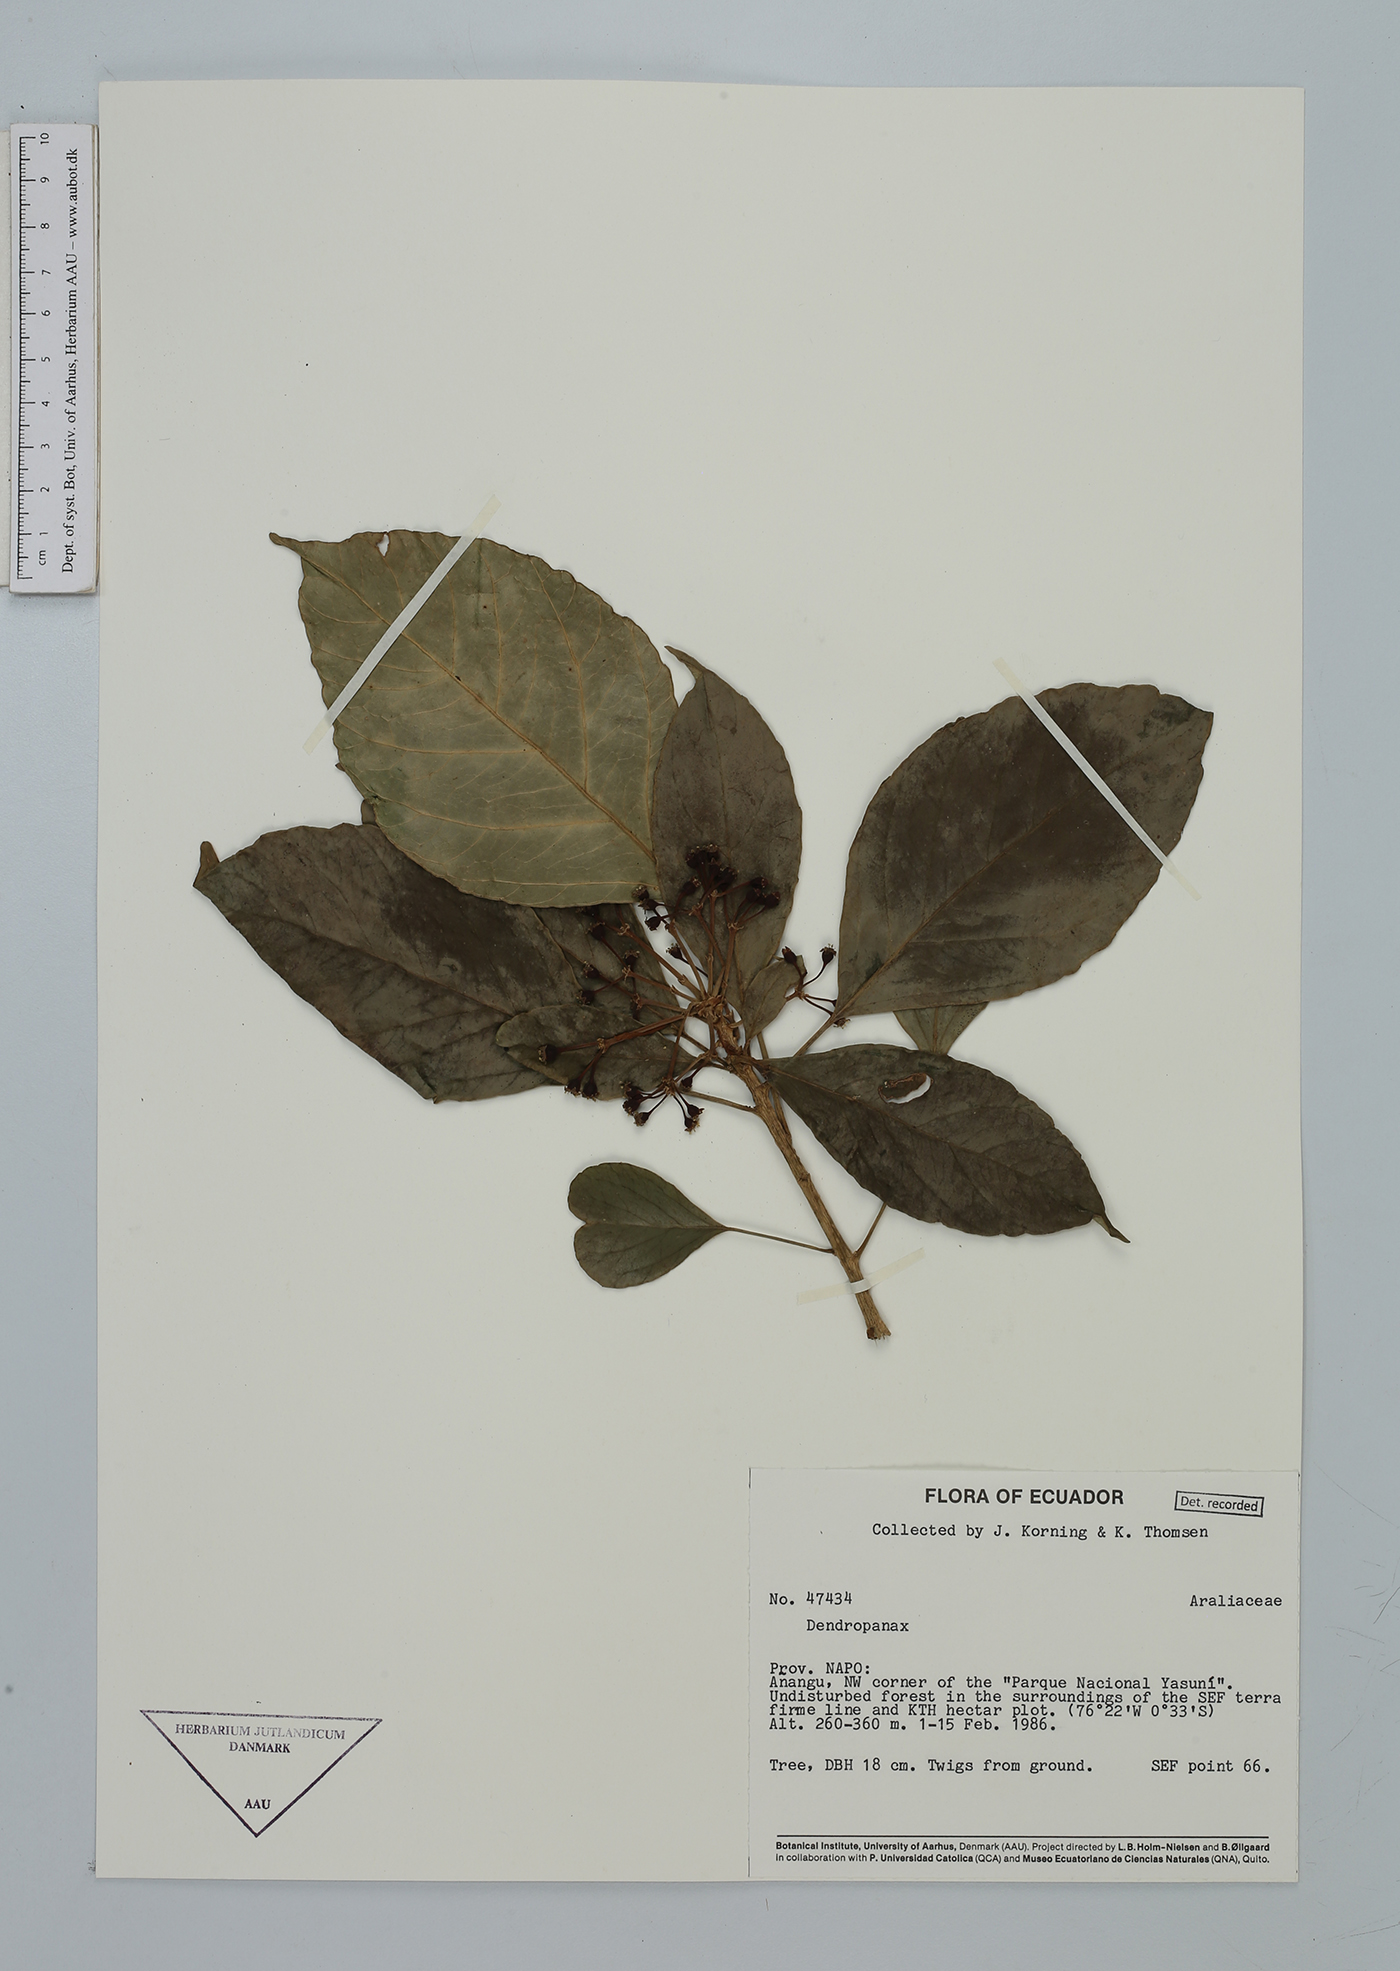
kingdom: Plantae
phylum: Tracheophyta
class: Magnoliopsida
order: Apiales
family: Araliaceae
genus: Dendropanax
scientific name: Dendropanax
